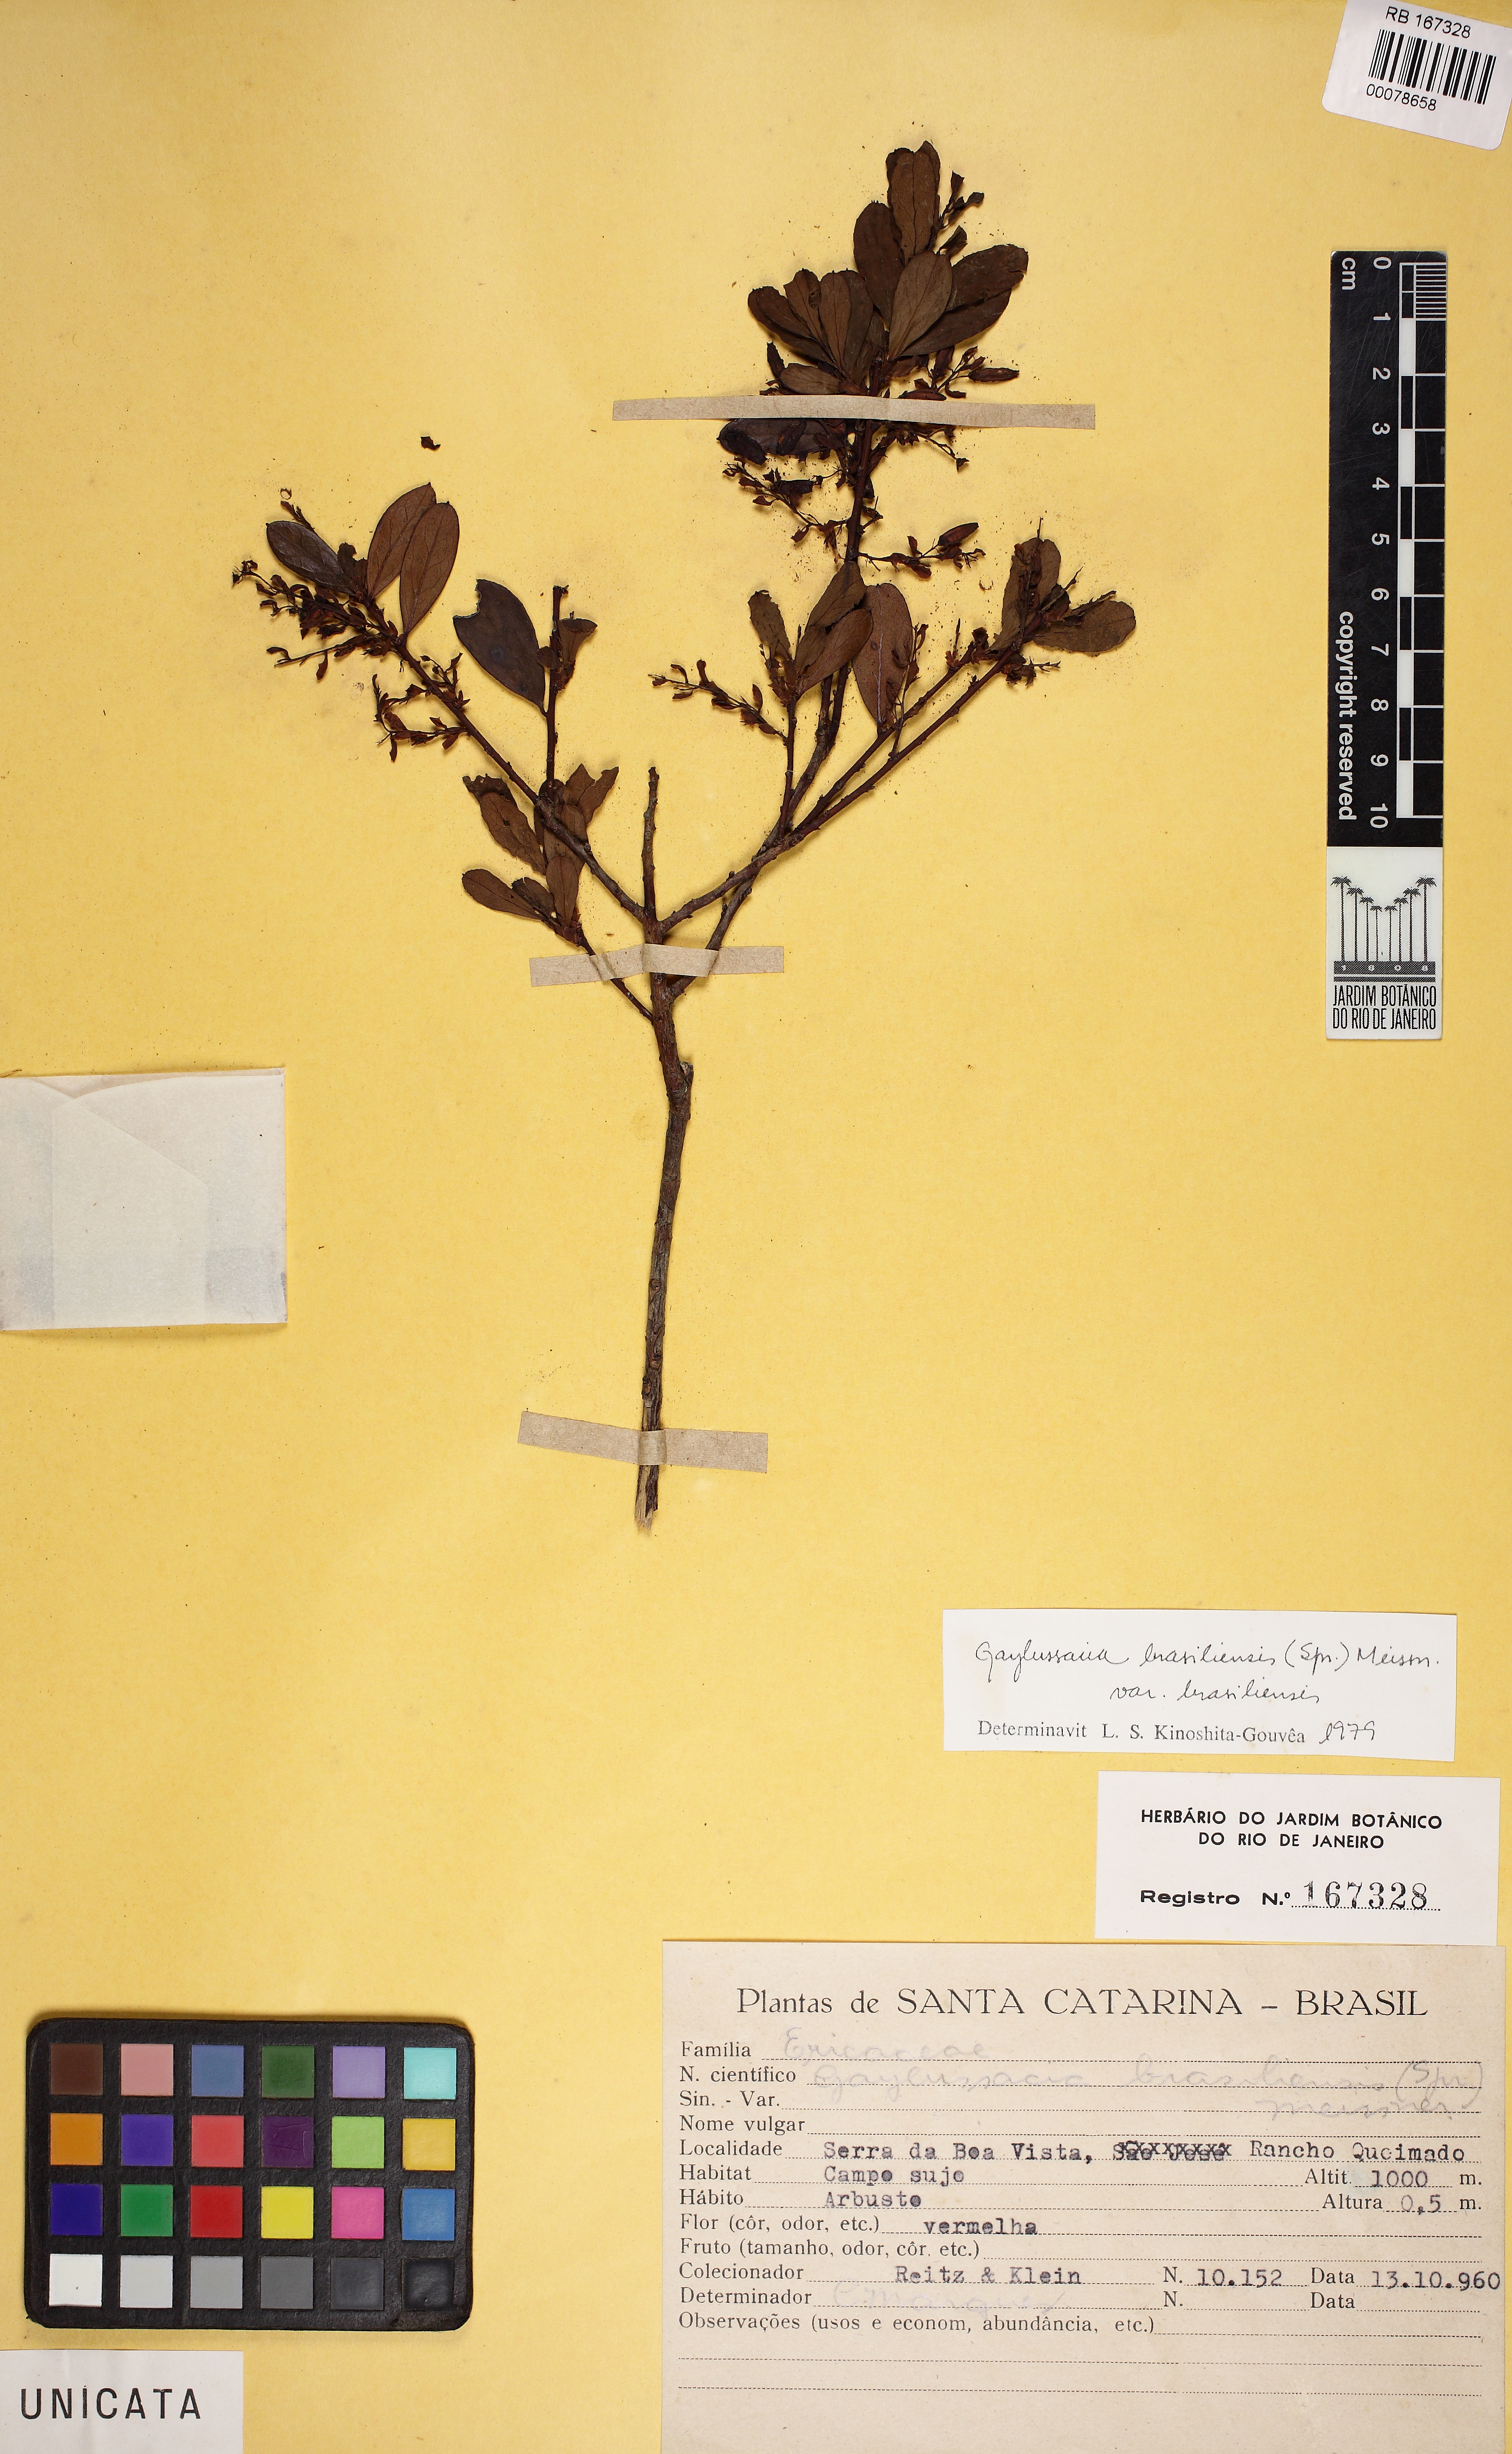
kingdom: Plantae
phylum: Tracheophyta
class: Magnoliopsida
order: Ericales
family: Ericaceae
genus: Gaylussacia
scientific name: Gaylussacia brasiliensis
